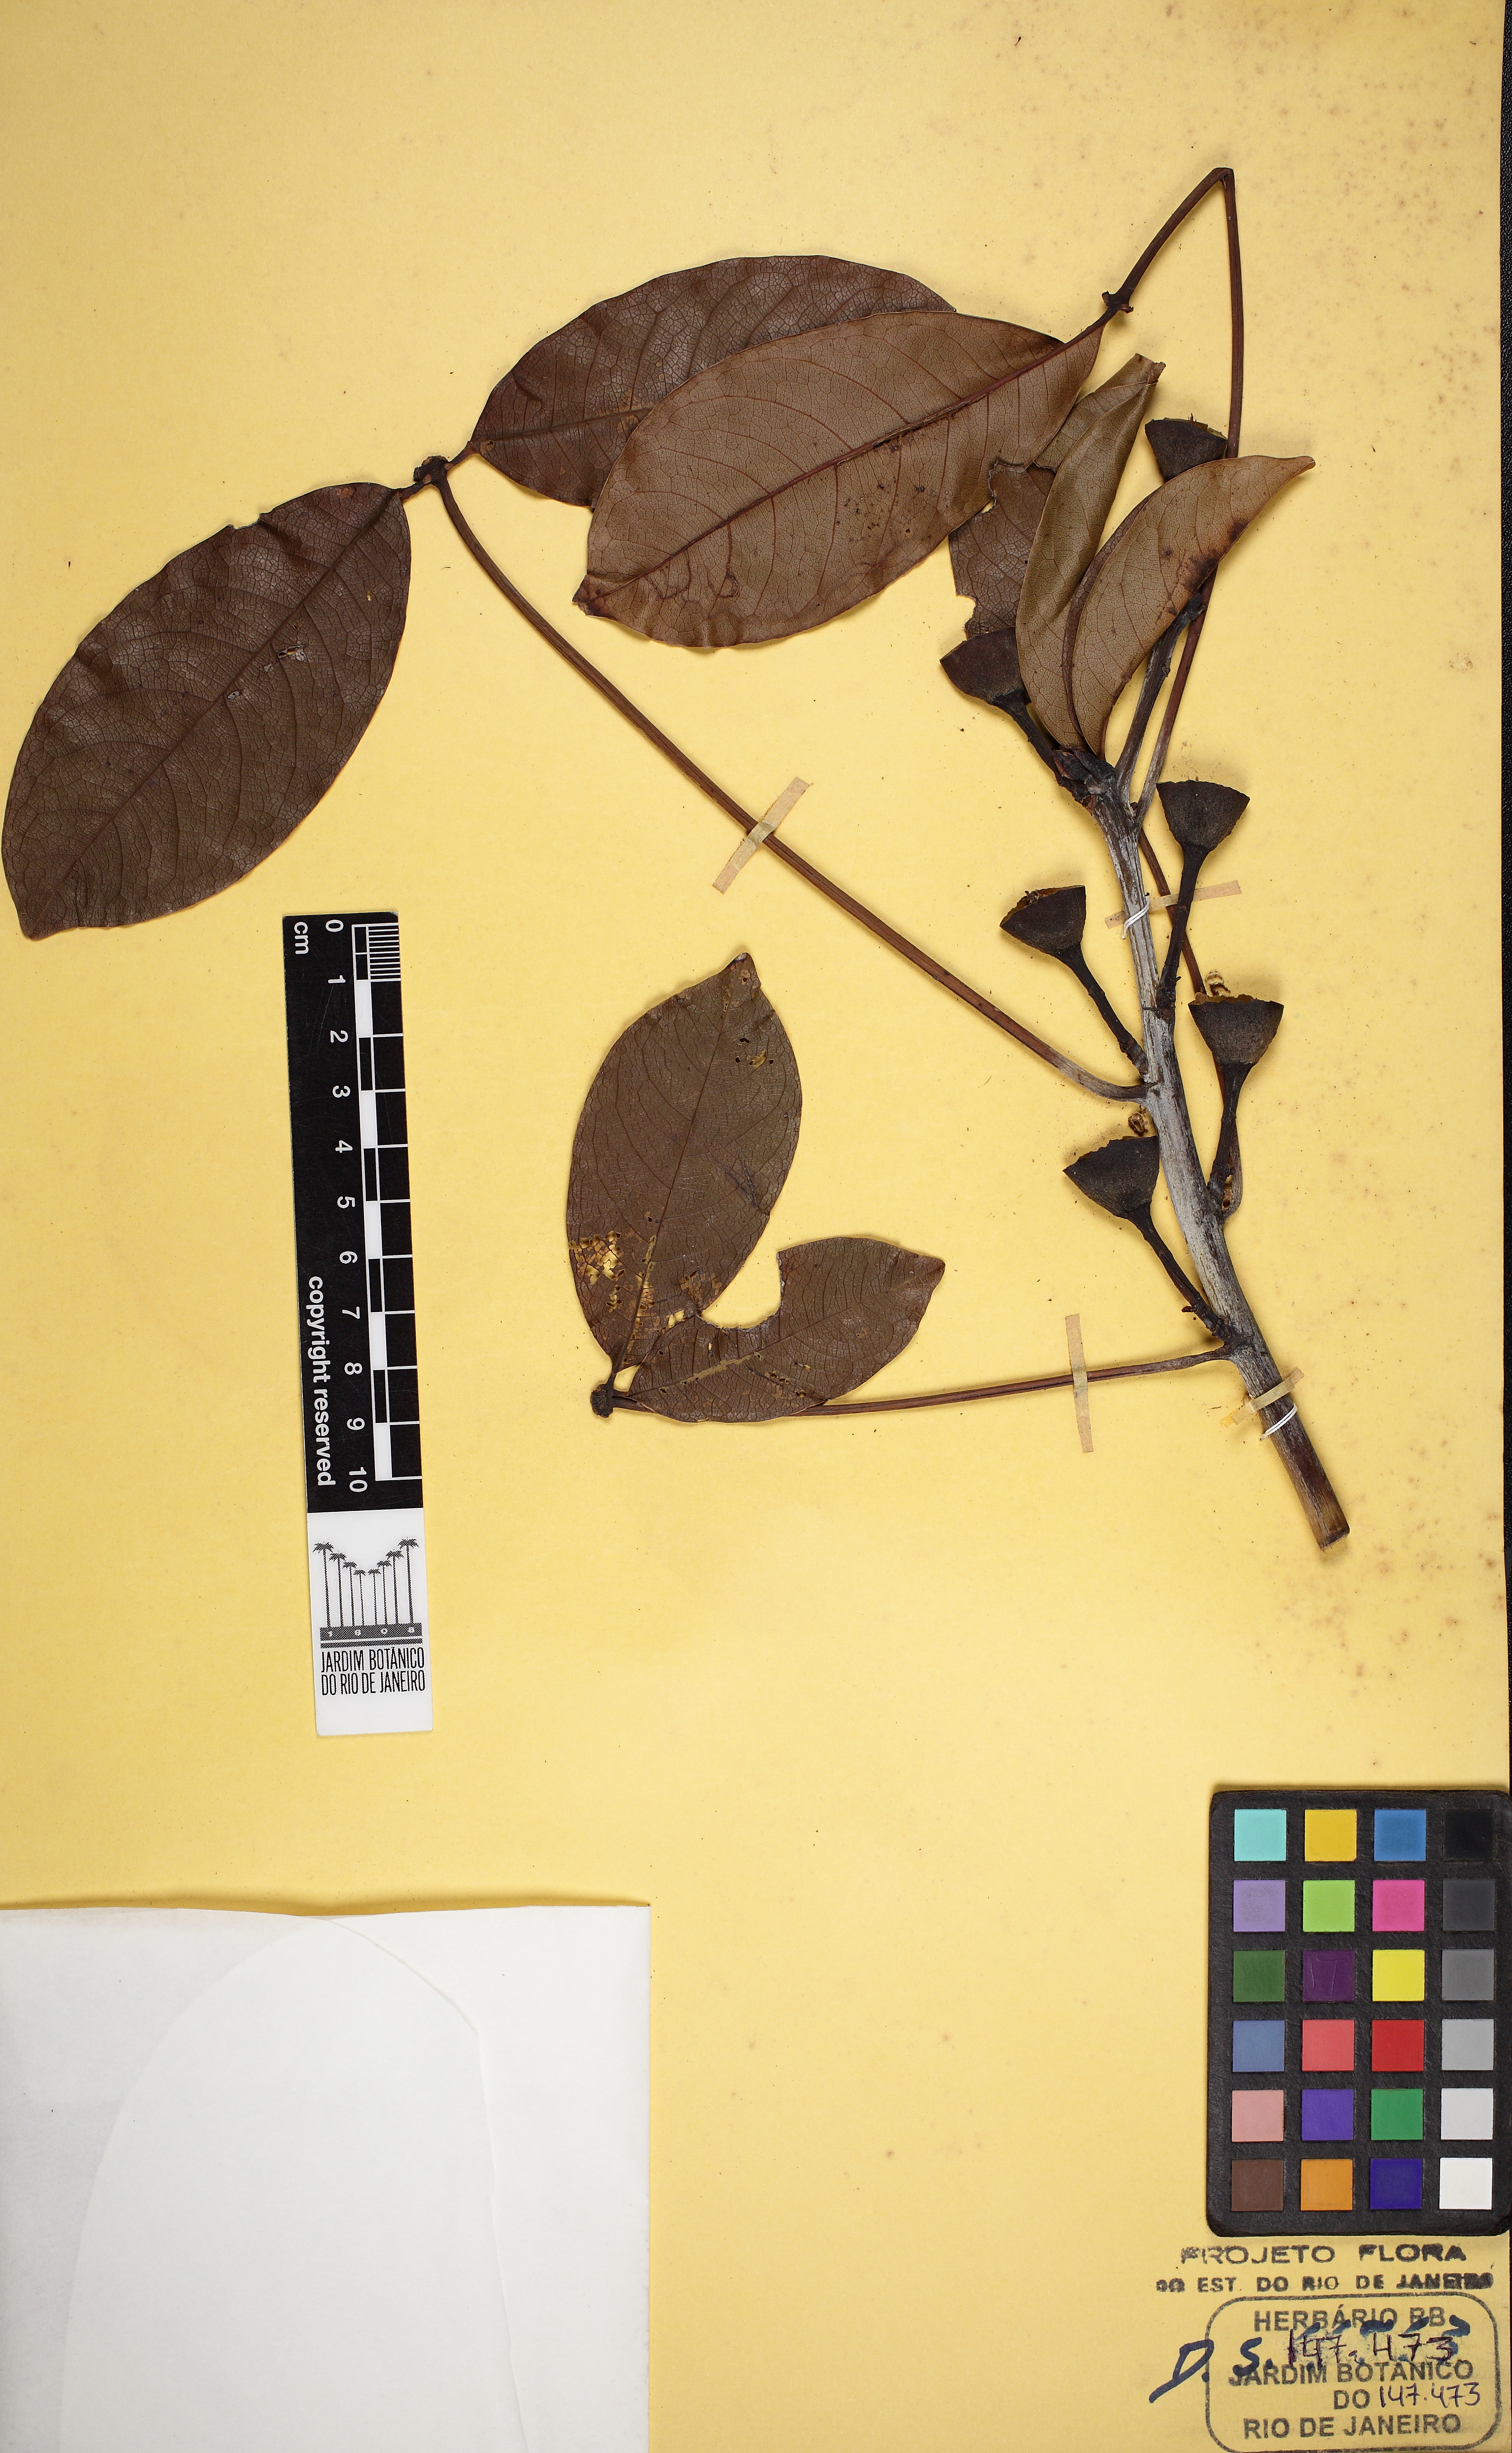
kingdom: Plantae
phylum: Tracheophyta
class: Magnoliopsida
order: Malvales
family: Malvaceae
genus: Pseudobombax
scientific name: Pseudobombax grandiflorum
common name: Brazilian shaving-brush-tree
